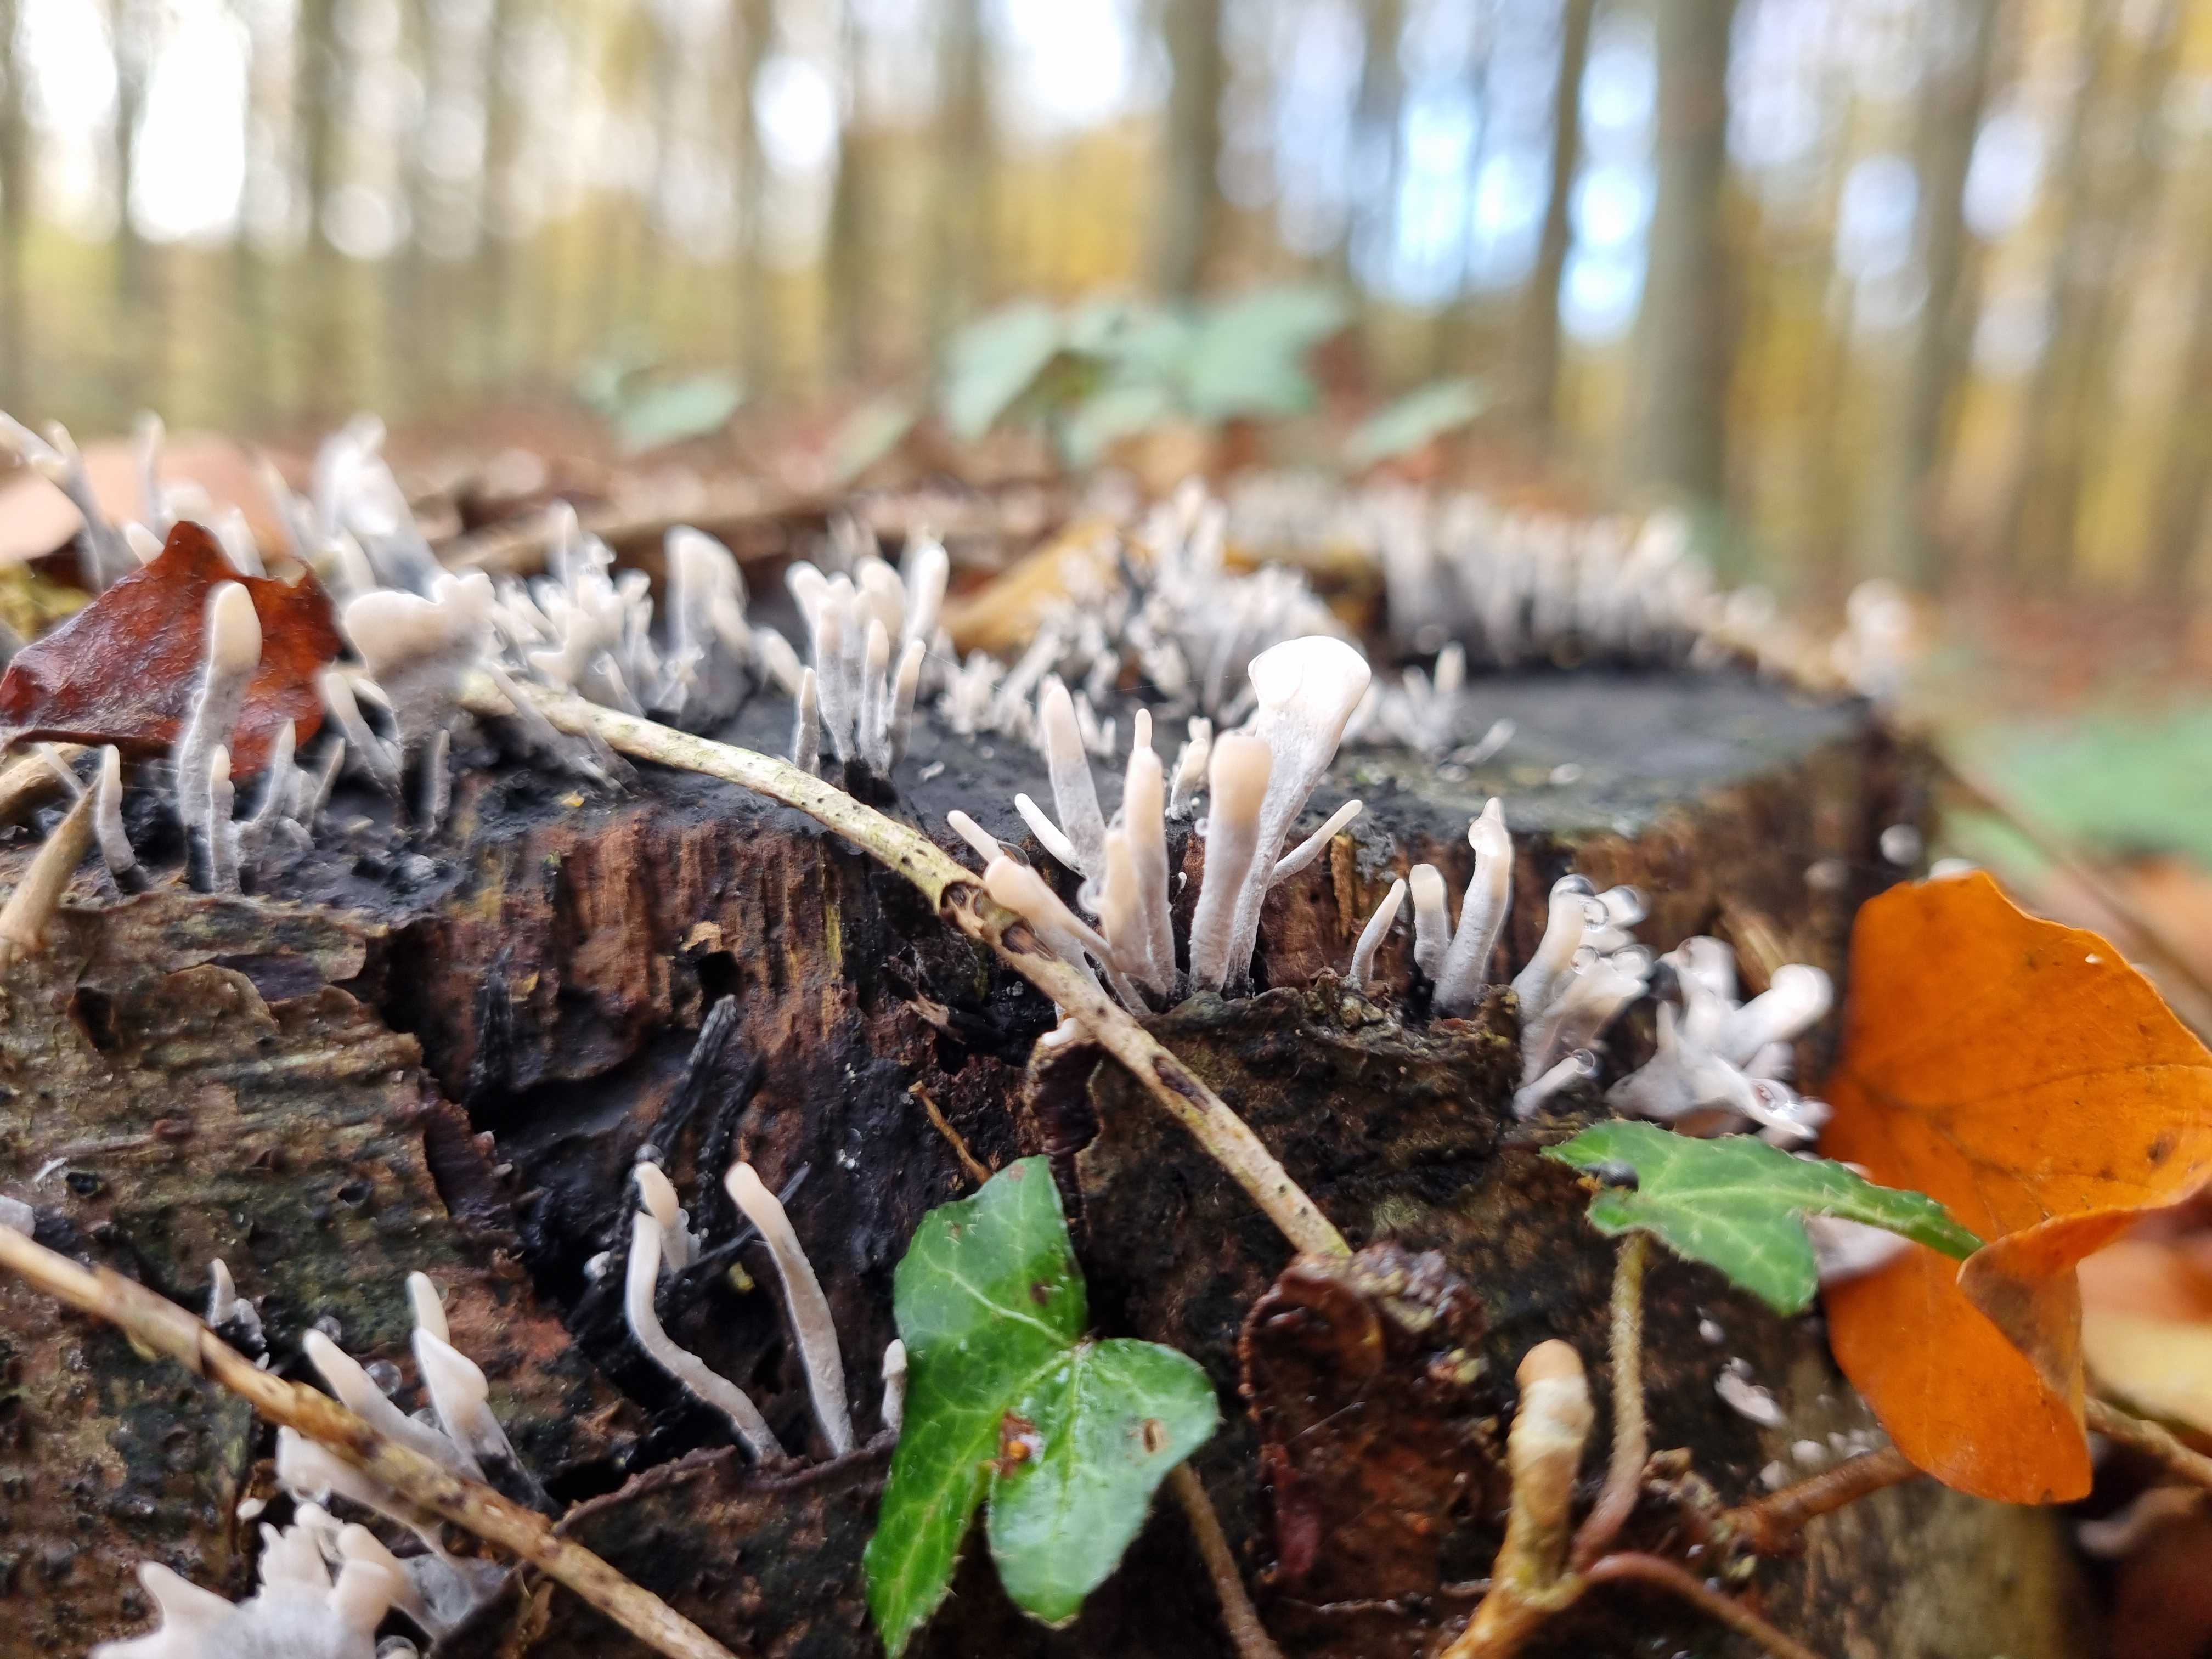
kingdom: Fungi
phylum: Ascomycota
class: Sordariomycetes
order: Xylariales
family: Xylariaceae
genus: Xylaria
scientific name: Xylaria hypoxylon
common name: grenet stødsvamp
